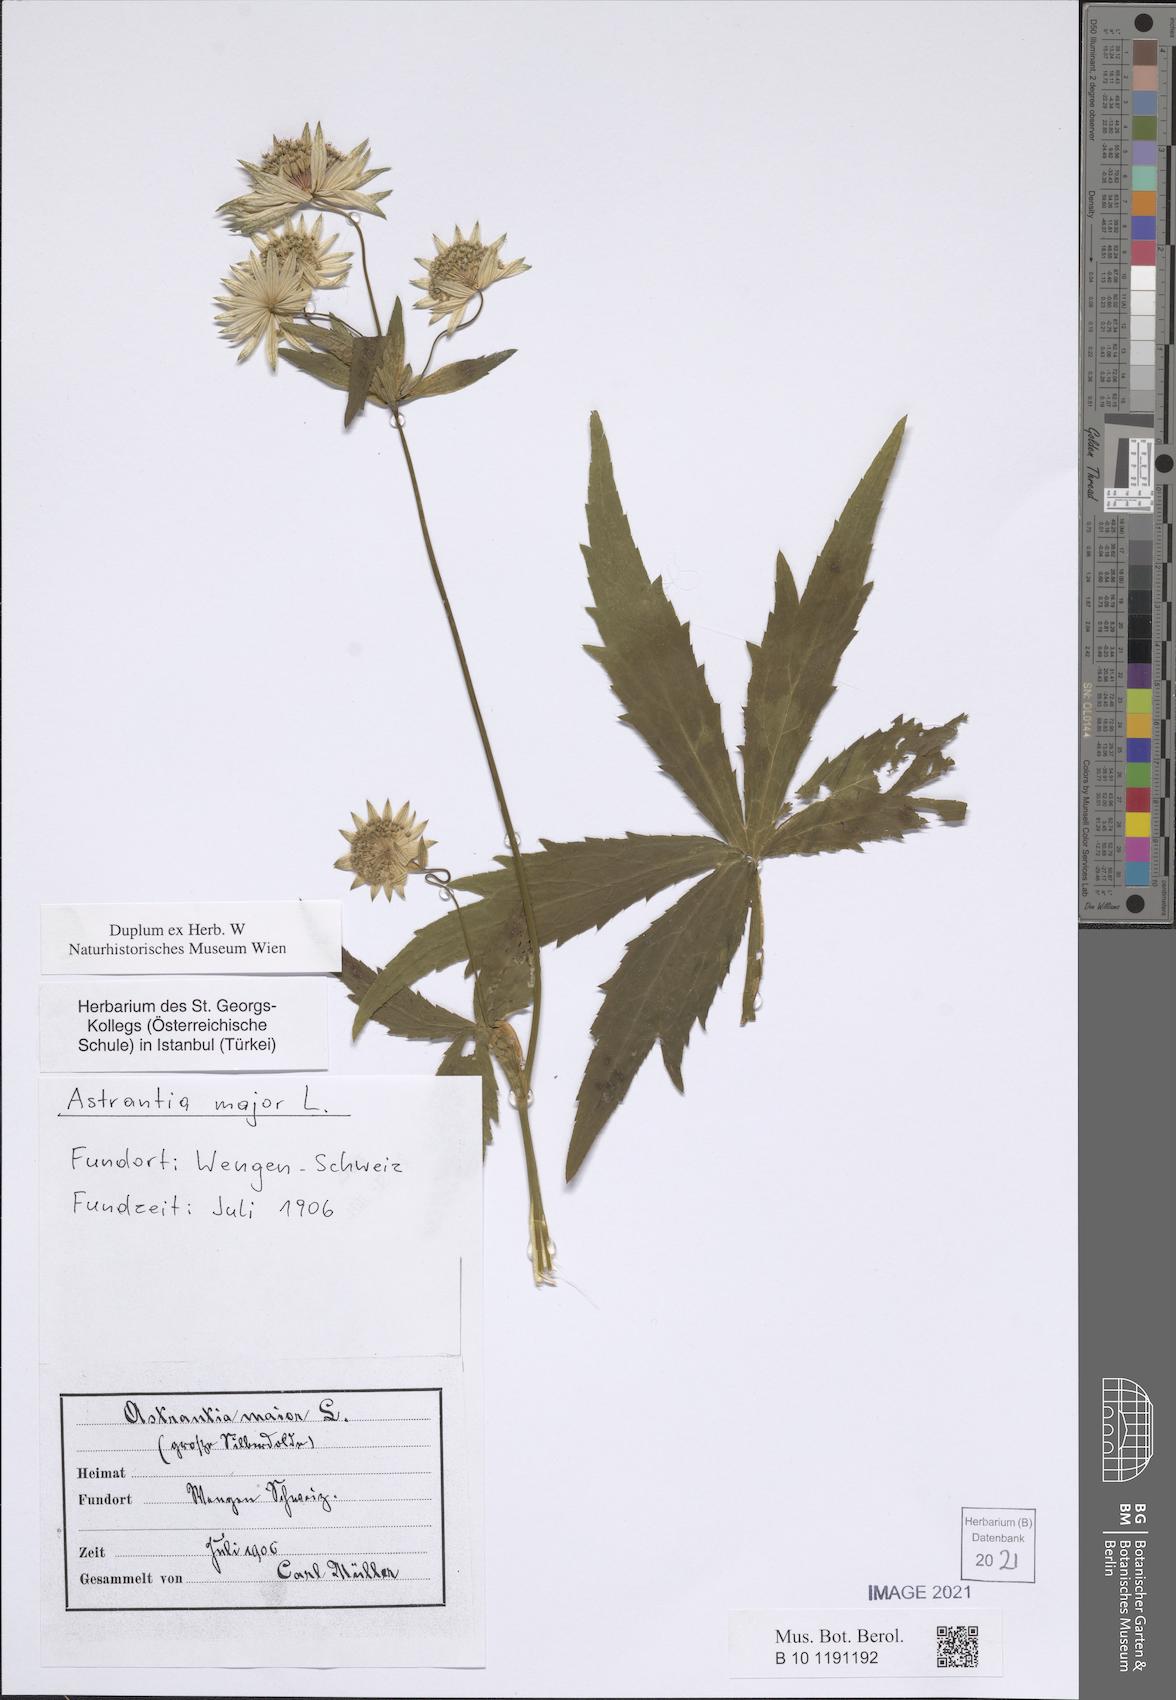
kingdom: Plantae
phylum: Tracheophyta
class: Magnoliopsida
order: Apiales
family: Apiaceae
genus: Astrantia
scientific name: Astrantia major
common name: Greater masterwort
